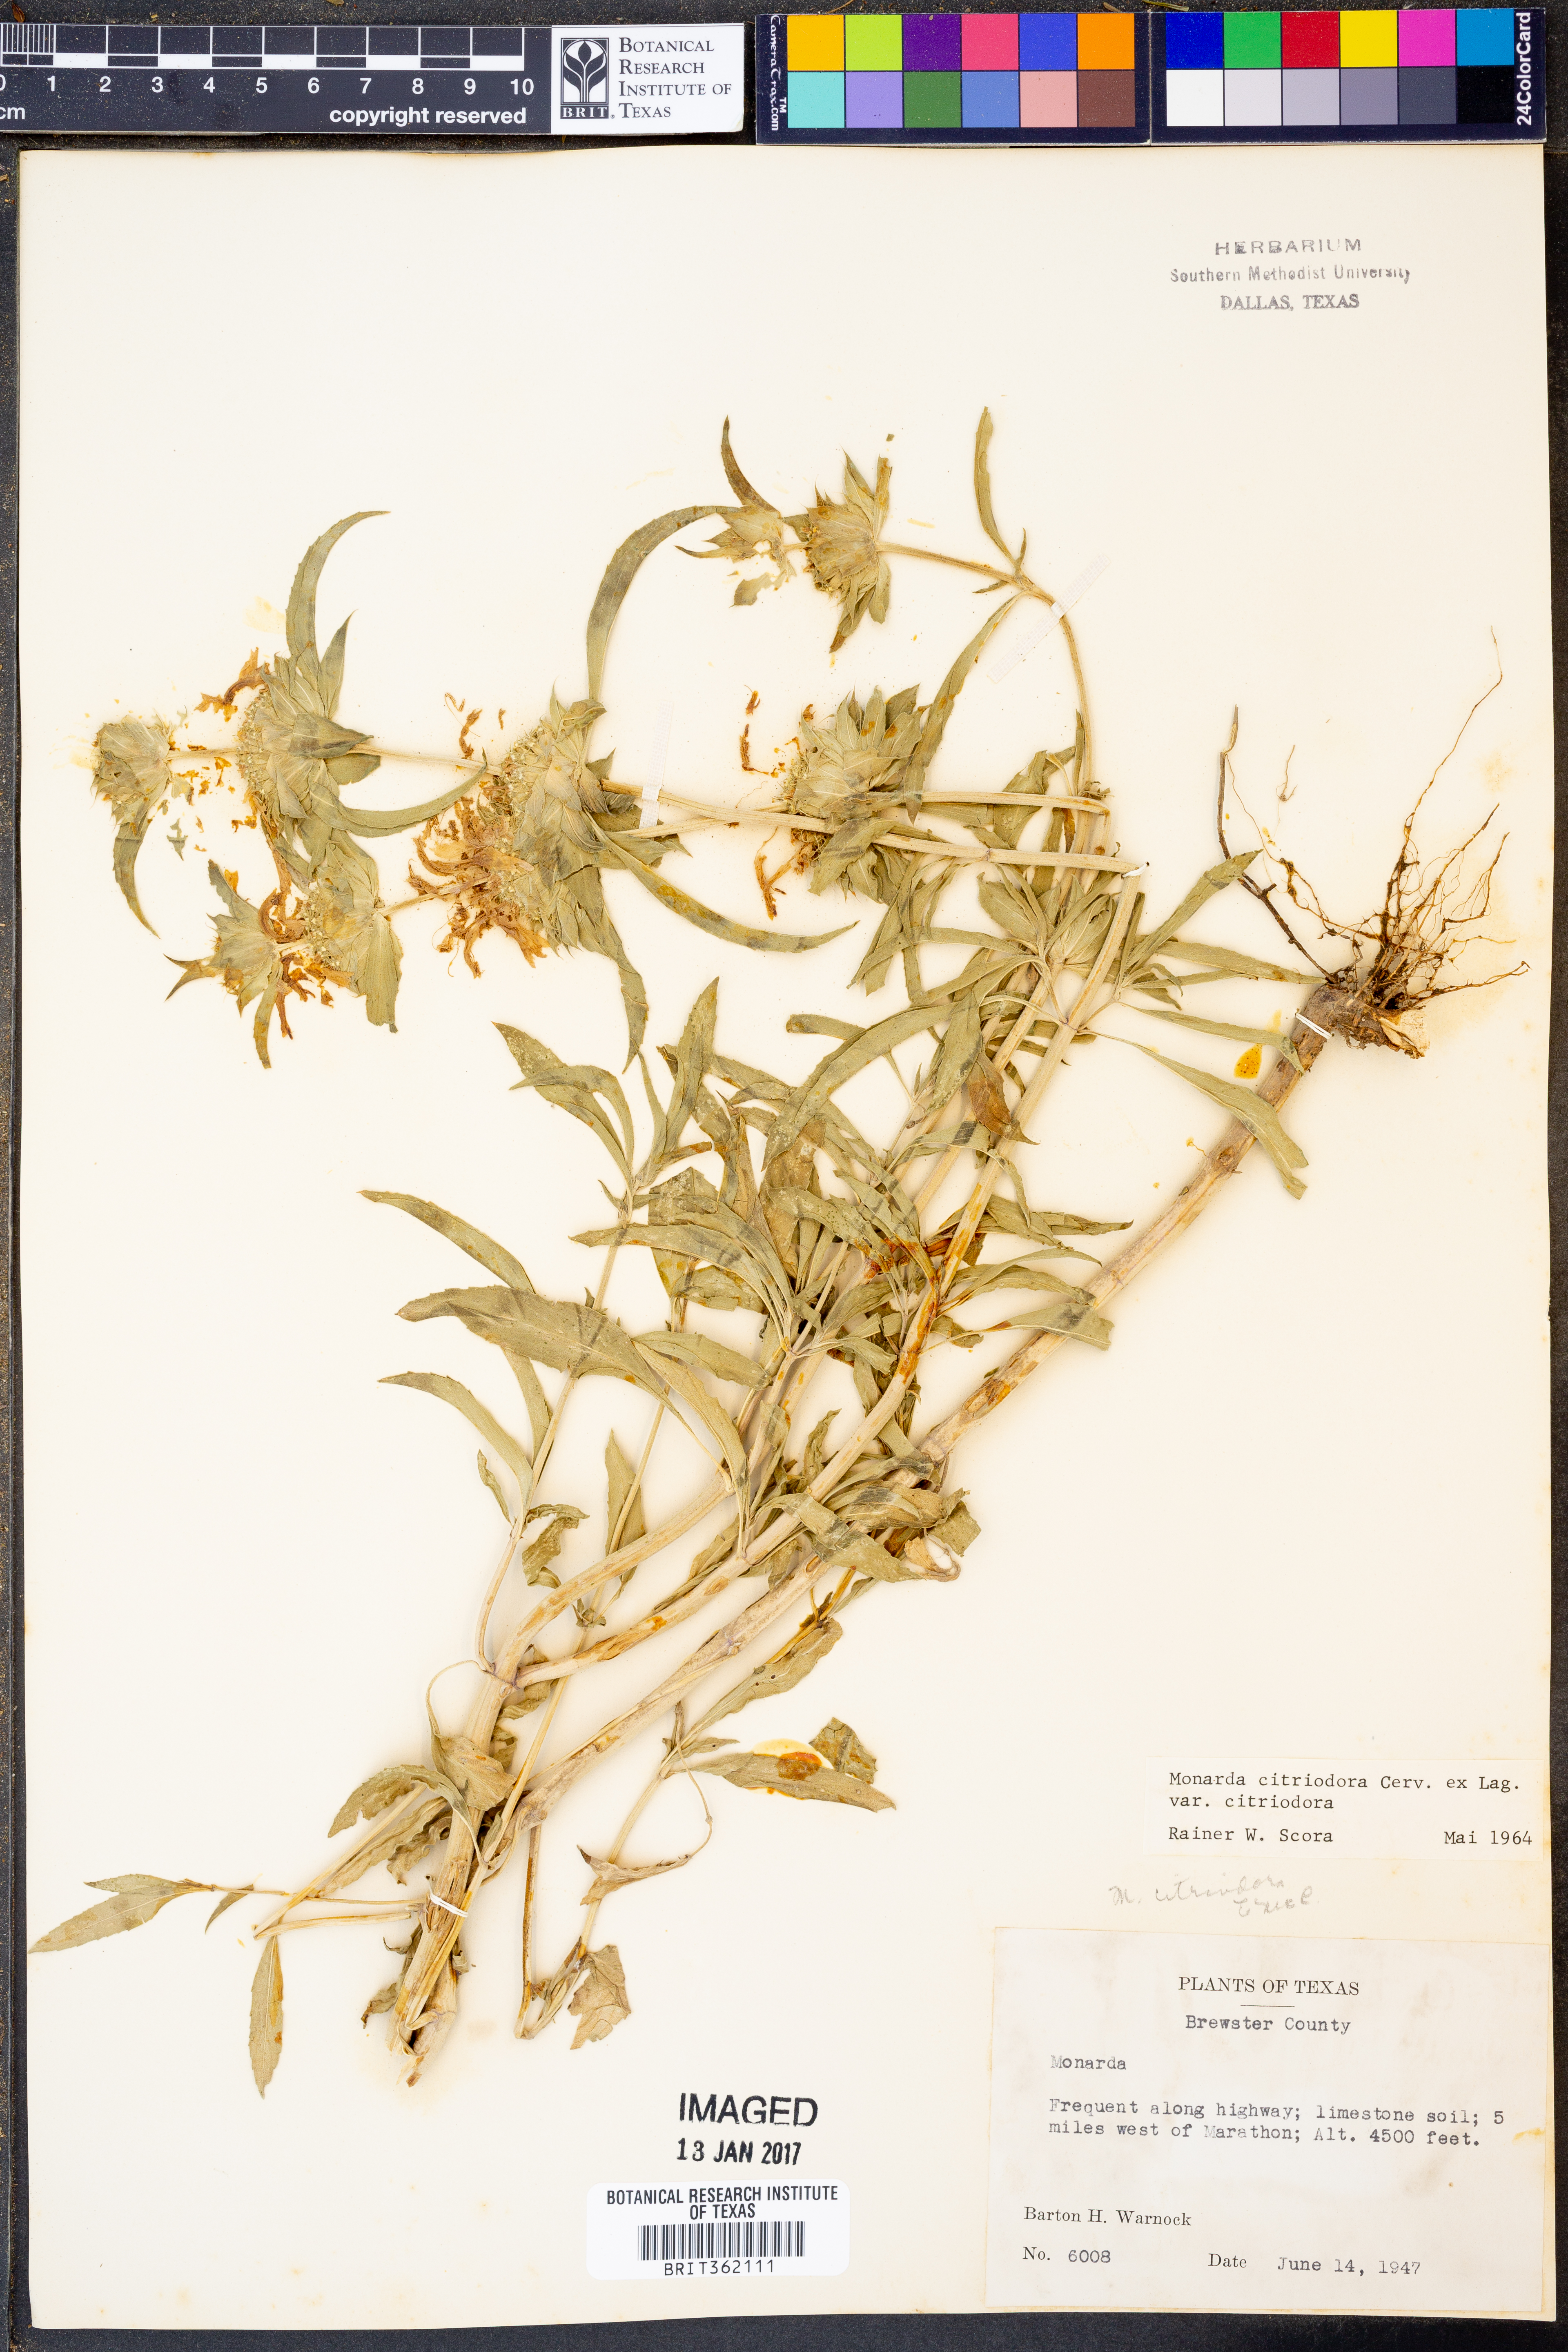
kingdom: Plantae
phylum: Tracheophyta
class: Magnoliopsida
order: Lamiales
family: Lamiaceae
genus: Monarda
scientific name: Monarda citriodora
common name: Lemon beebalm
